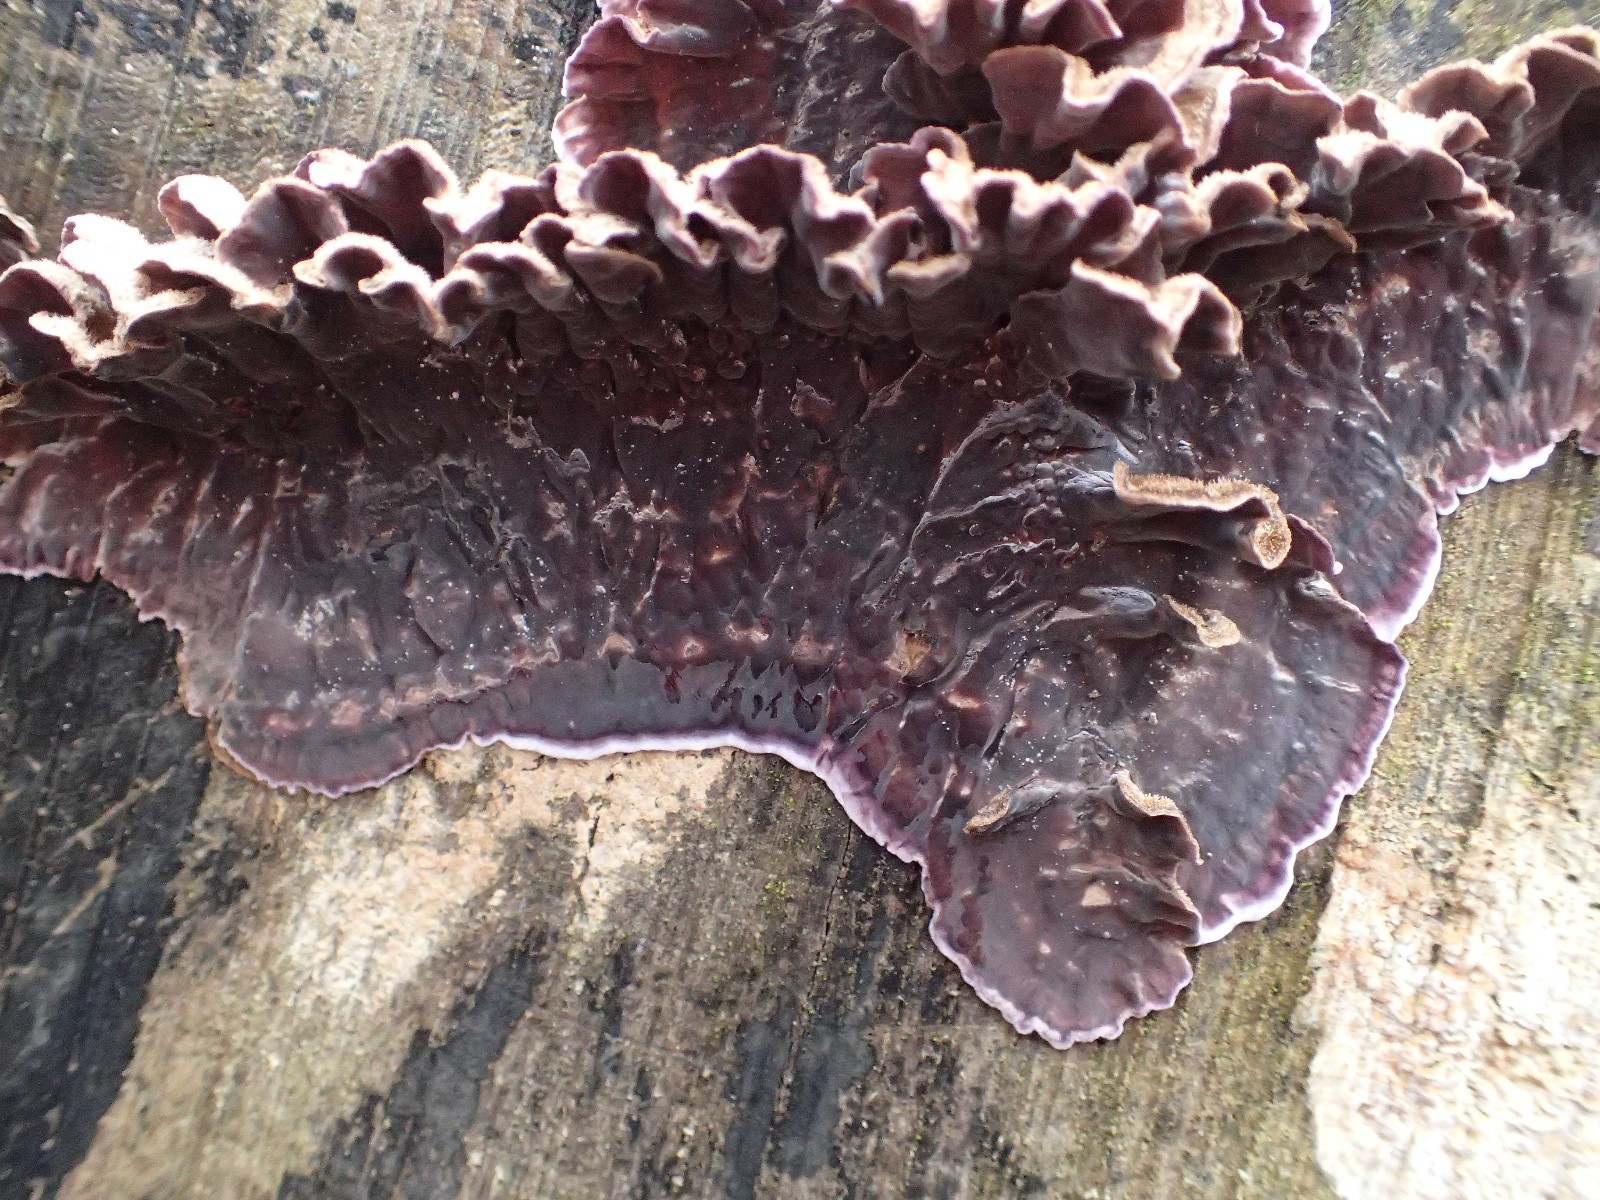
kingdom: Fungi
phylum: Basidiomycota
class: Agaricomycetes
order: Agaricales
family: Cyphellaceae
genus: Chondrostereum
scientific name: Chondrostereum purpureum
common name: purpurlædersvamp
